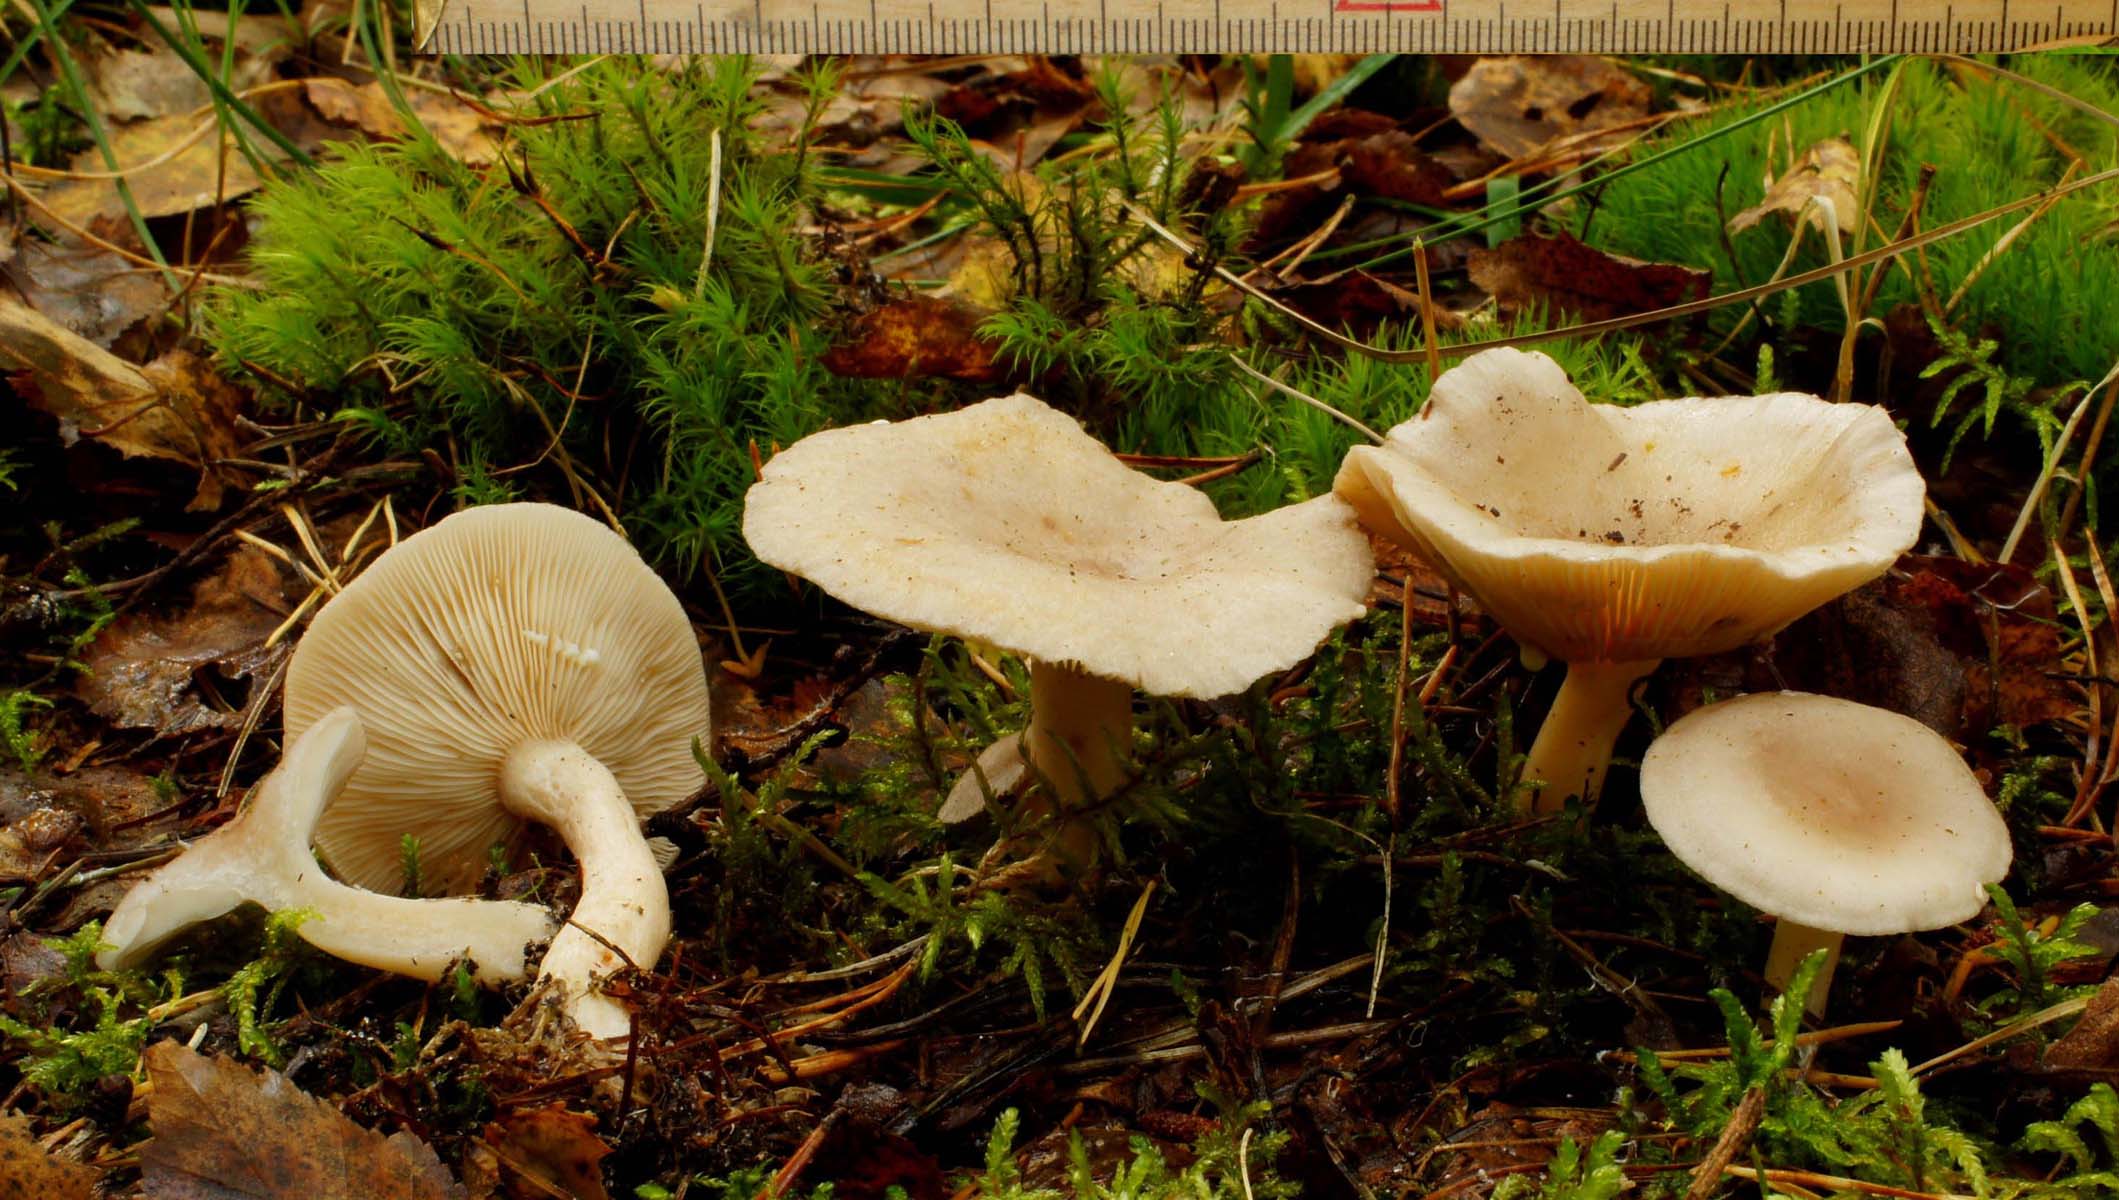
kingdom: Fungi
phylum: Basidiomycota
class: Agaricomycetes
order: Russulales
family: Russulaceae
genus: Lactarius
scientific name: Lactarius vietus
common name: violetgrå mælkehat
